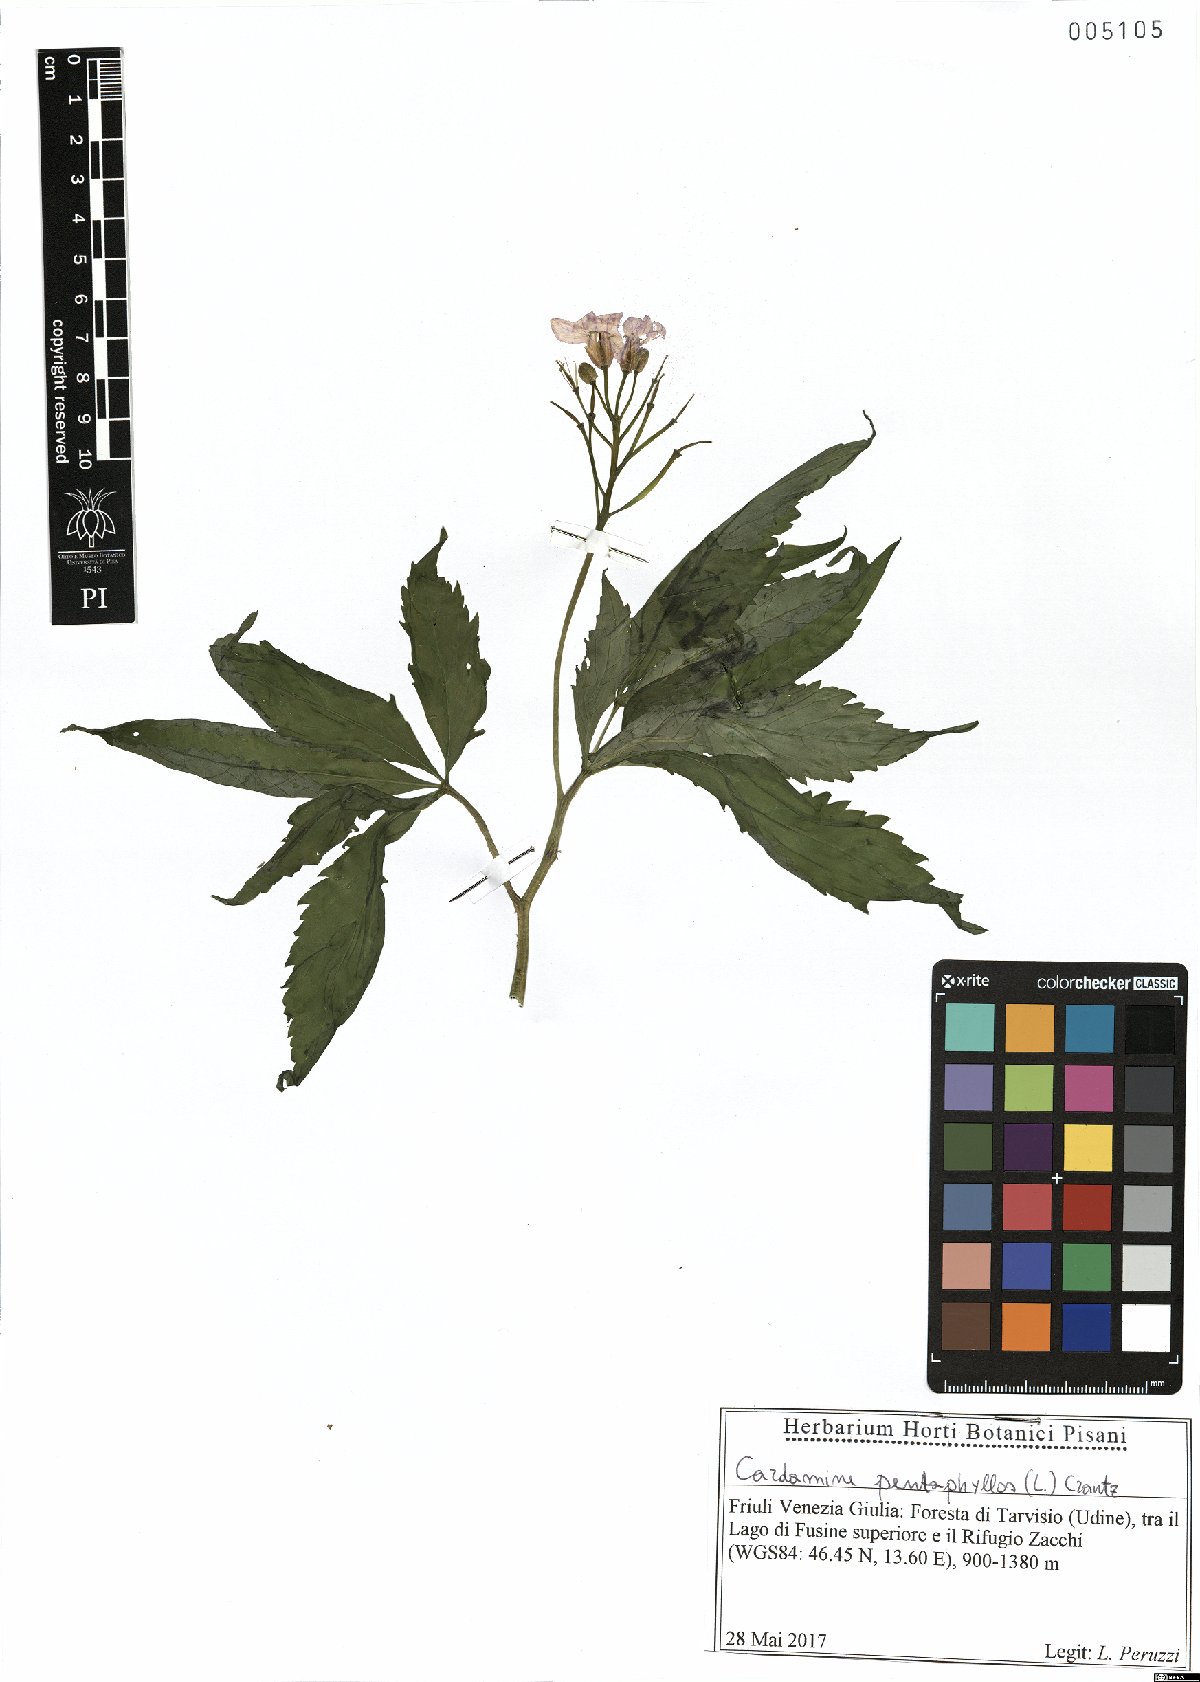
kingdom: Plantae
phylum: Tracheophyta
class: Magnoliopsida
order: Brassicales
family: Brassicaceae
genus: Cardamine
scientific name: Cardamine pentaphyllos
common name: Five-leaflet bitter-cress
